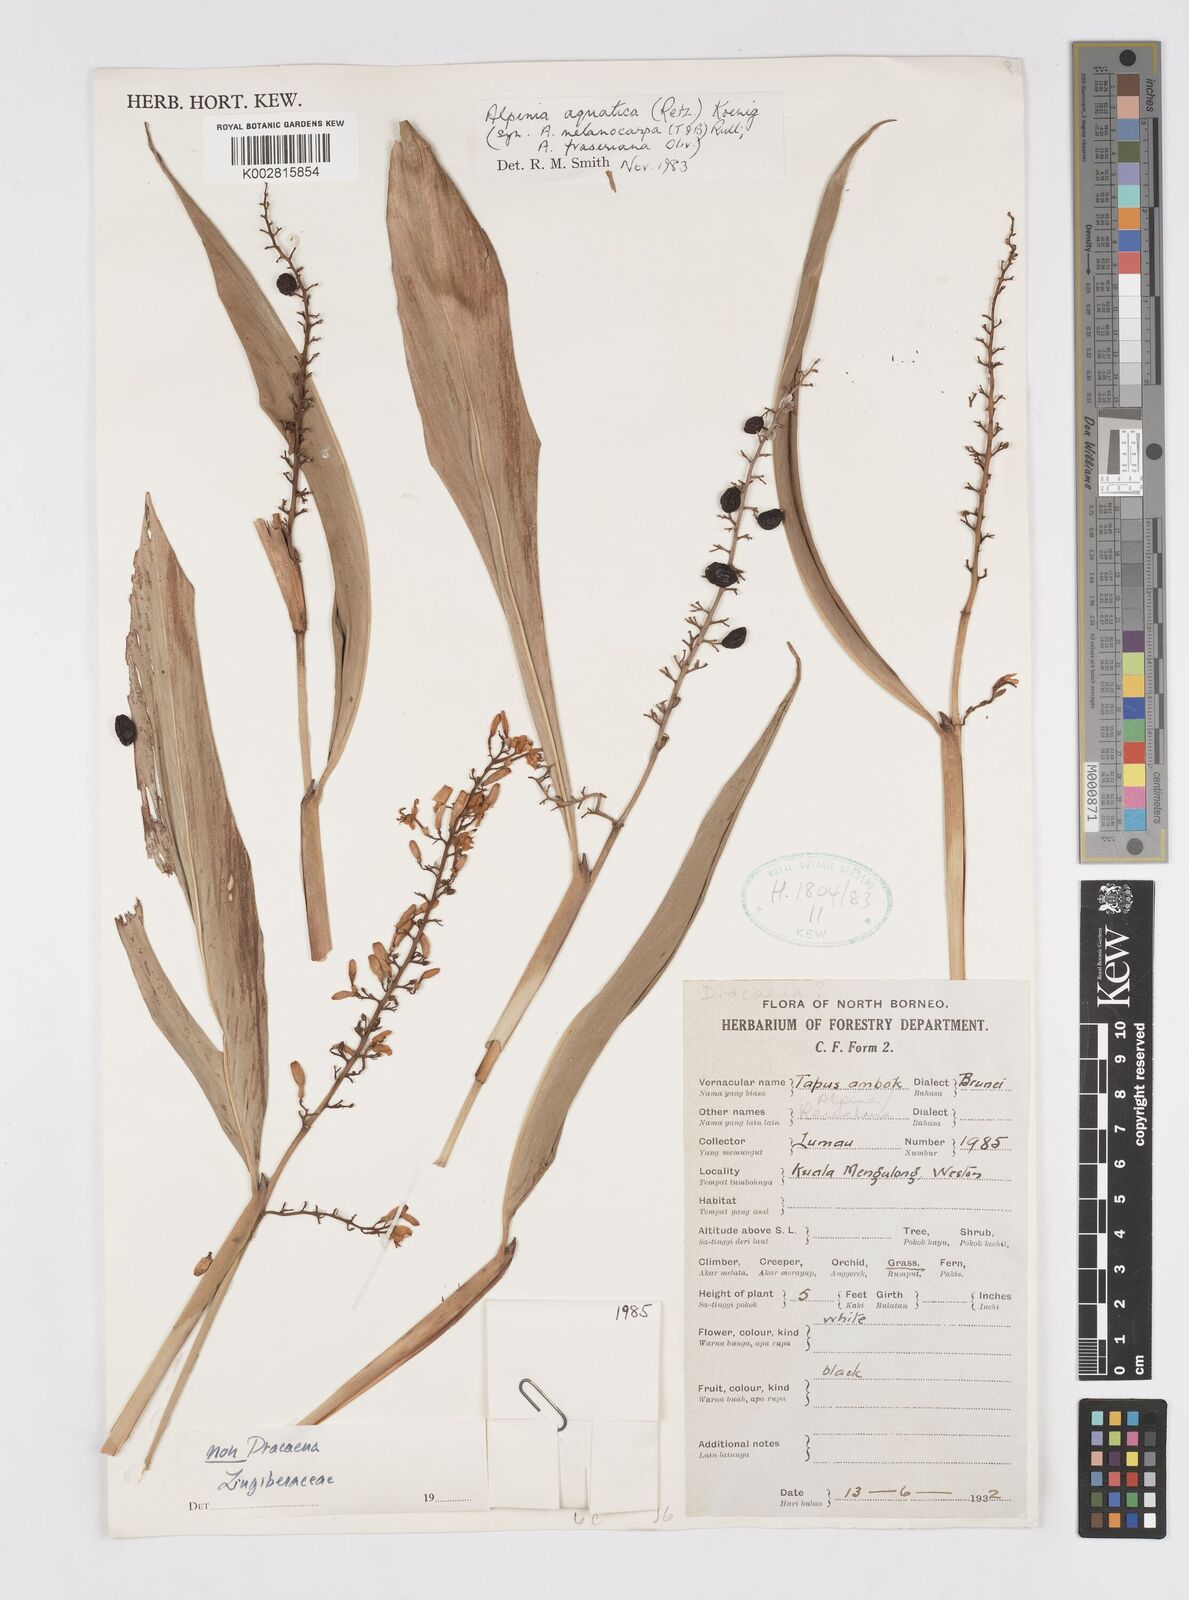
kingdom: Plantae
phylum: Tracheophyta
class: Liliopsida
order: Zingiberales
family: Zingiberaceae
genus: Alpinia
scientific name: Alpinia aquatica
